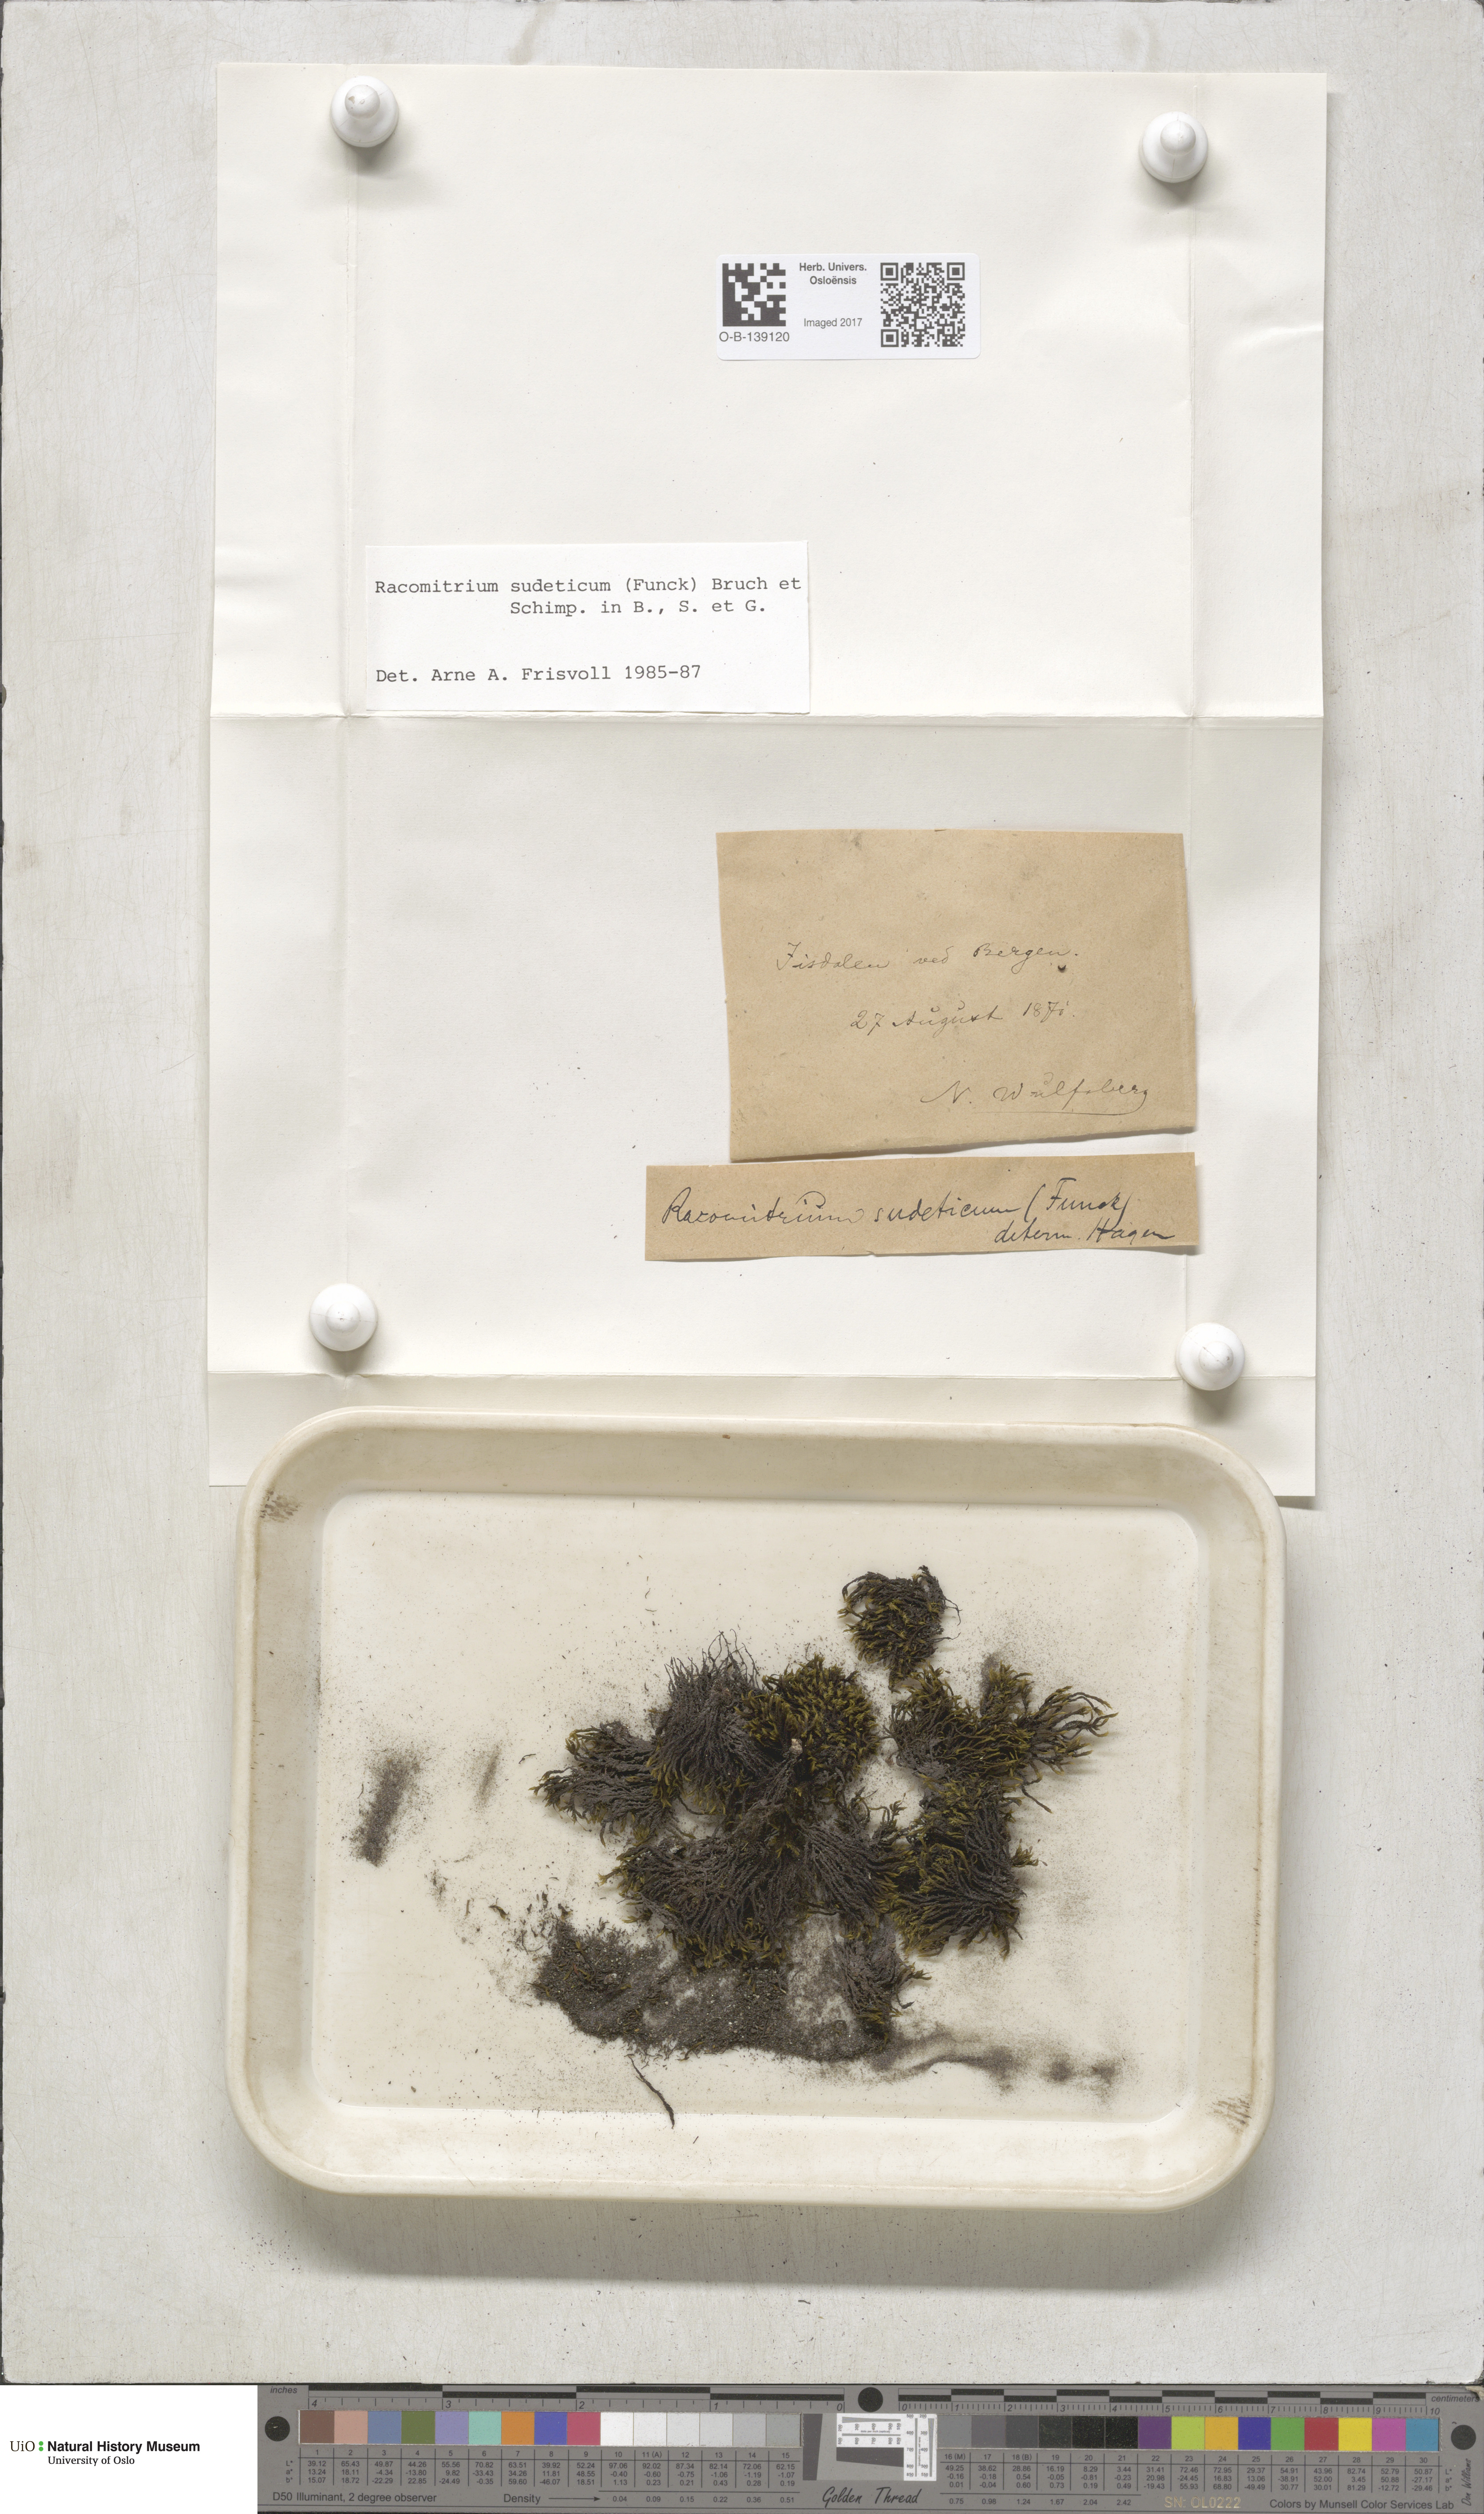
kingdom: Plantae
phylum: Bryophyta
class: Bryopsida
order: Grimmiales
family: Grimmiaceae
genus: Bucklandiella
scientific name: Bucklandiella sudetica
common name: Slender fringe-moss
